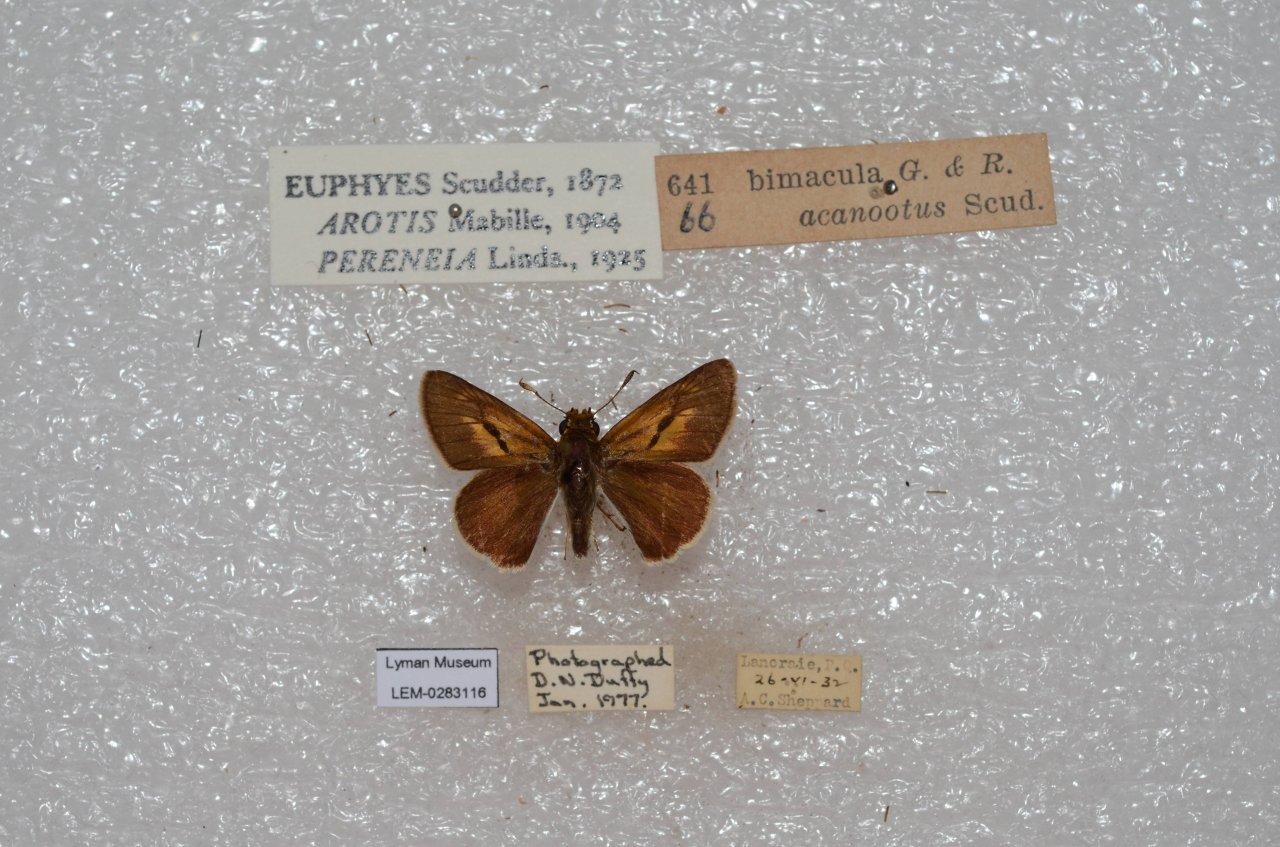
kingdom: Animalia
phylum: Arthropoda
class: Insecta
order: Lepidoptera
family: Hesperiidae
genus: Euphyes
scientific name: Euphyes bimacula
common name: Two-spotted Skipper
